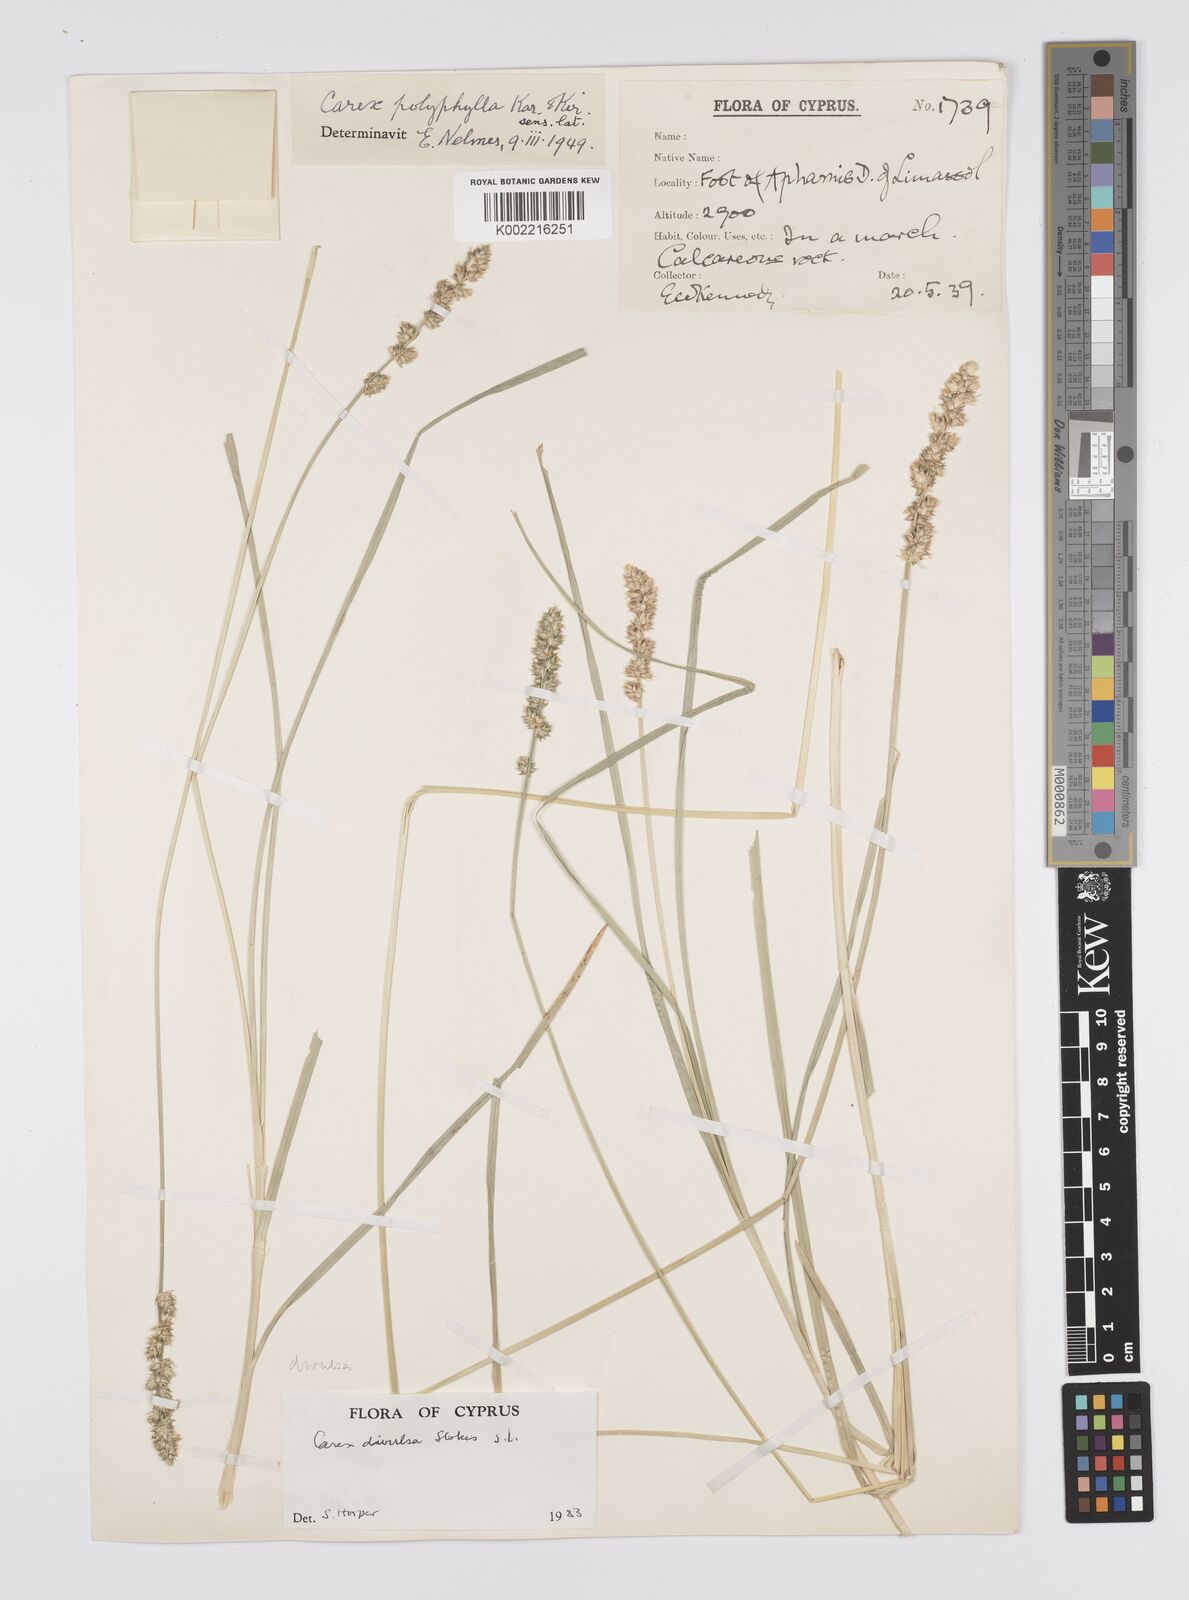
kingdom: Plantae
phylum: Tracheophyta
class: Liliopsida
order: Poales
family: Cyperaceae
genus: Carex
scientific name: Carex divulsa
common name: Grassland sedge
